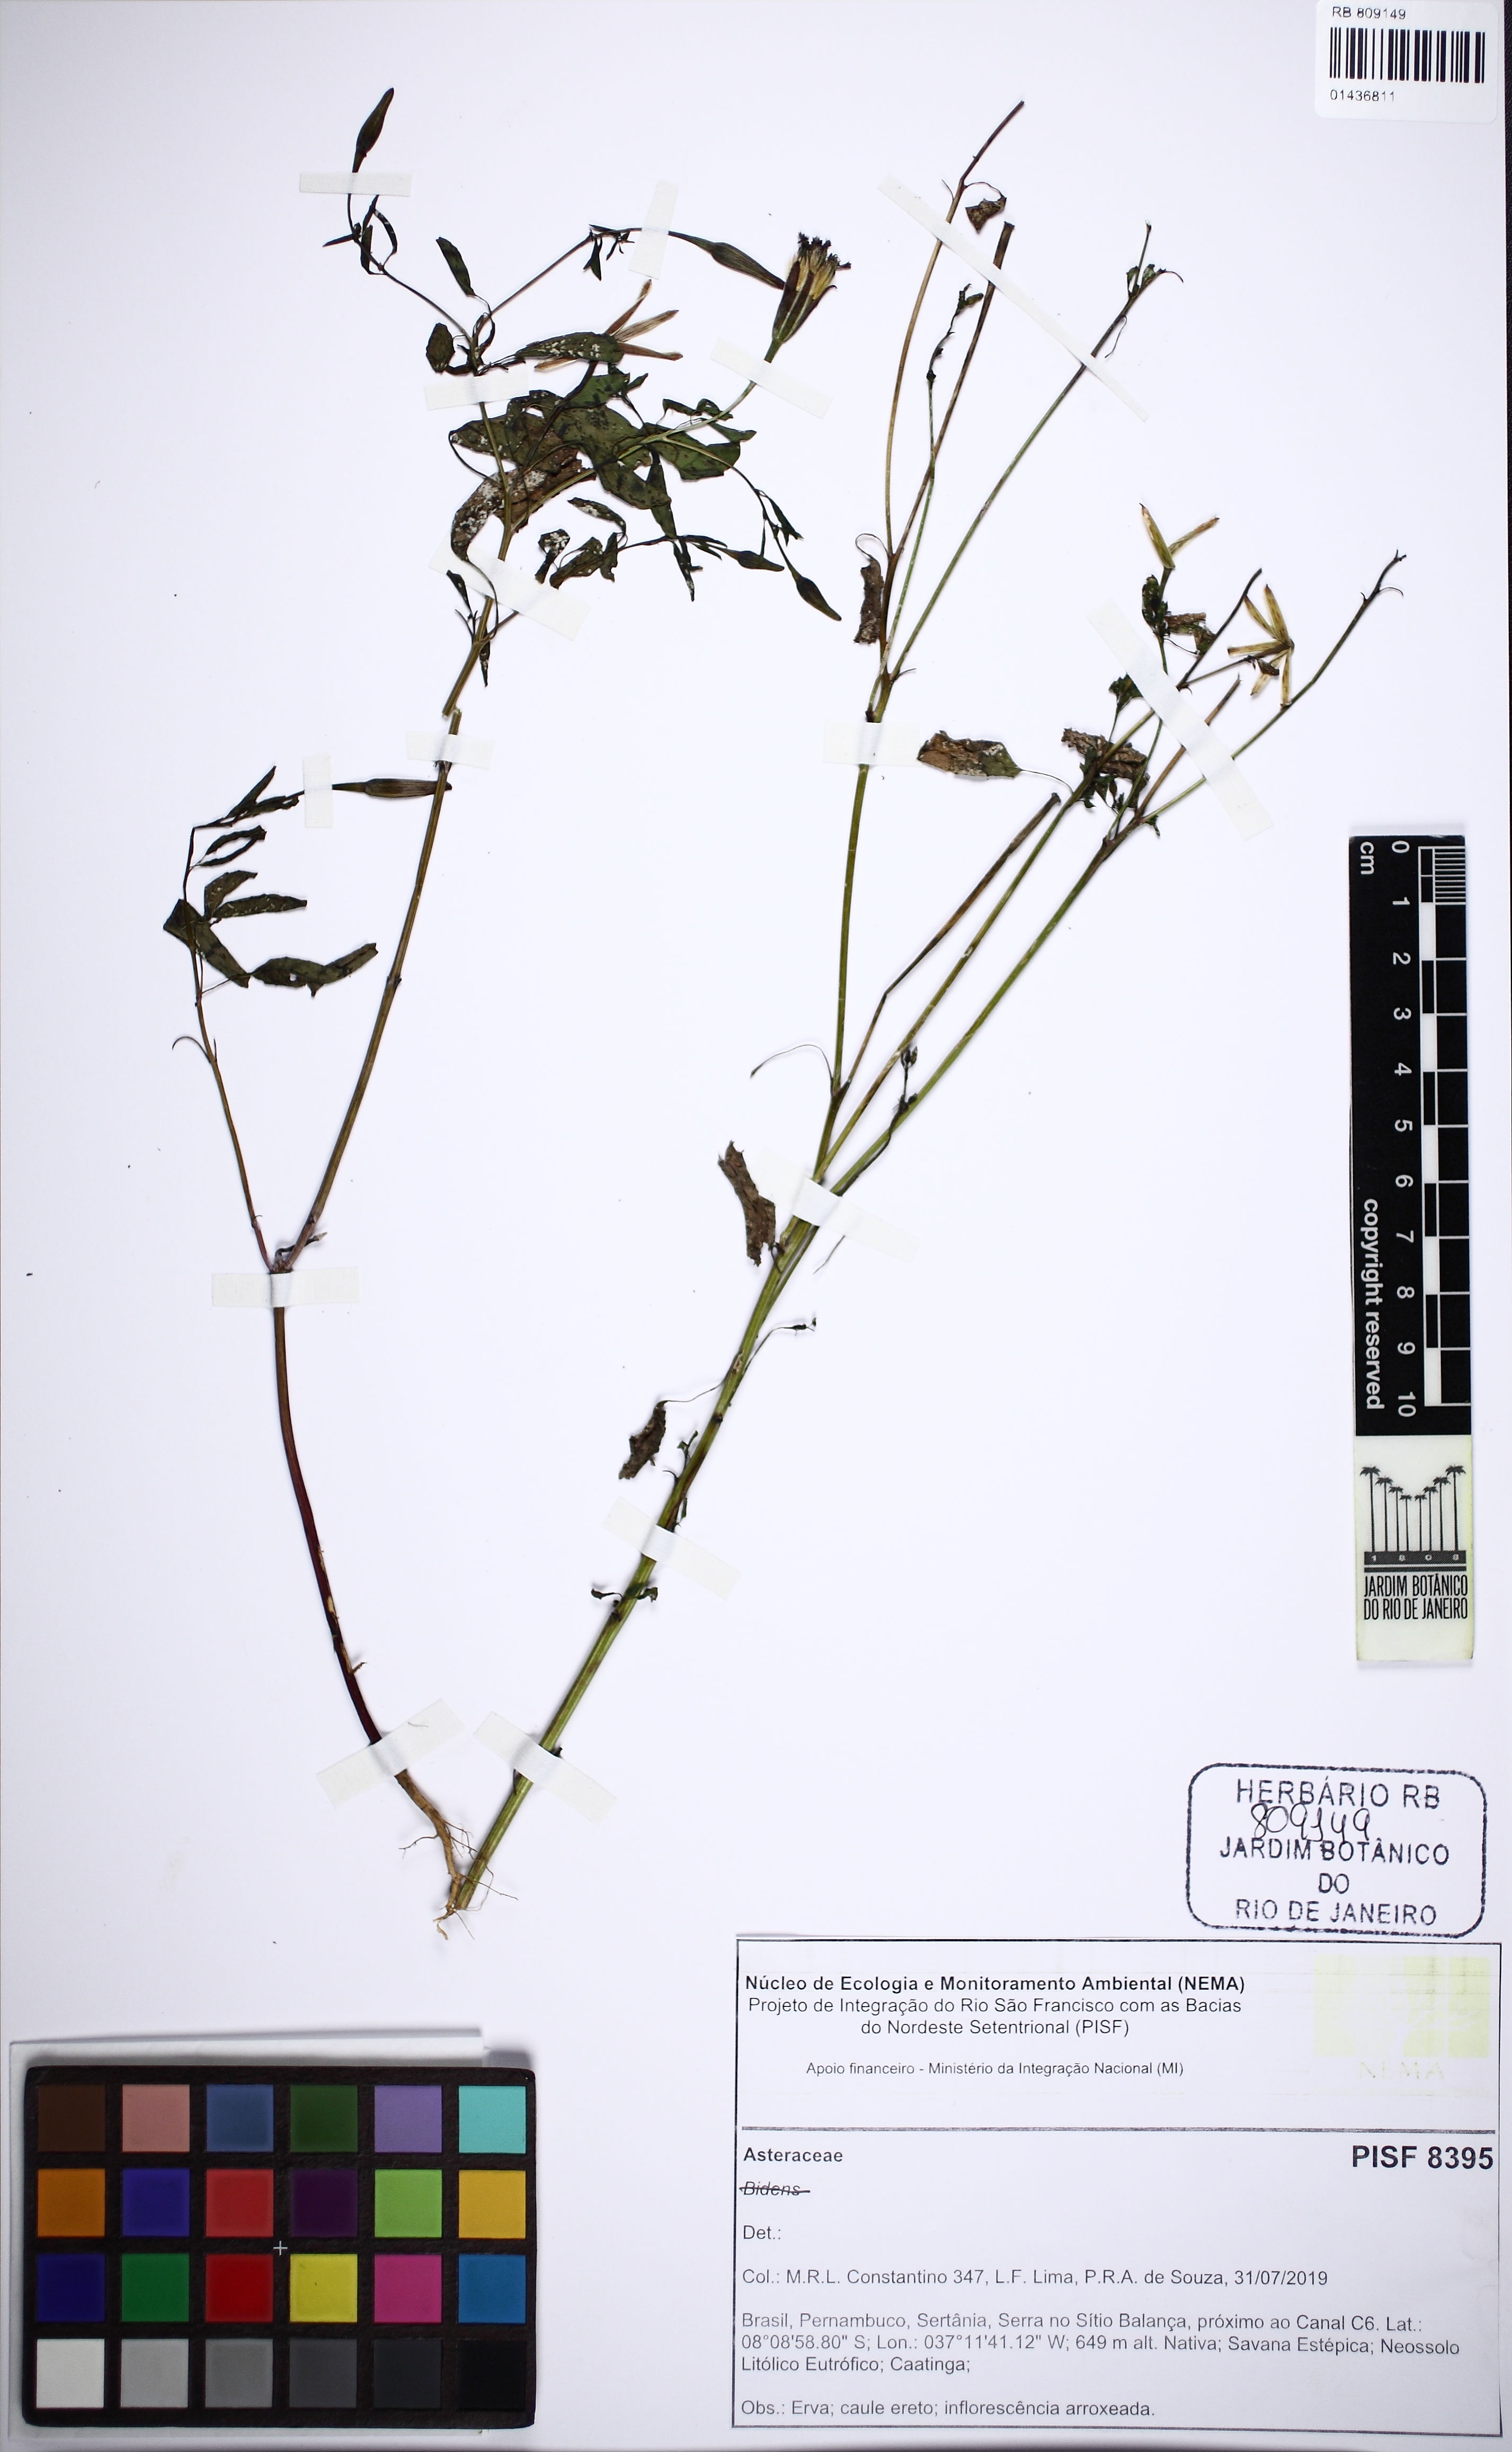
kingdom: Plantae
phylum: Tracheophyta
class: Magnoliopsida
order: Asterales
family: Asteraceae
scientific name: Asteraceae
